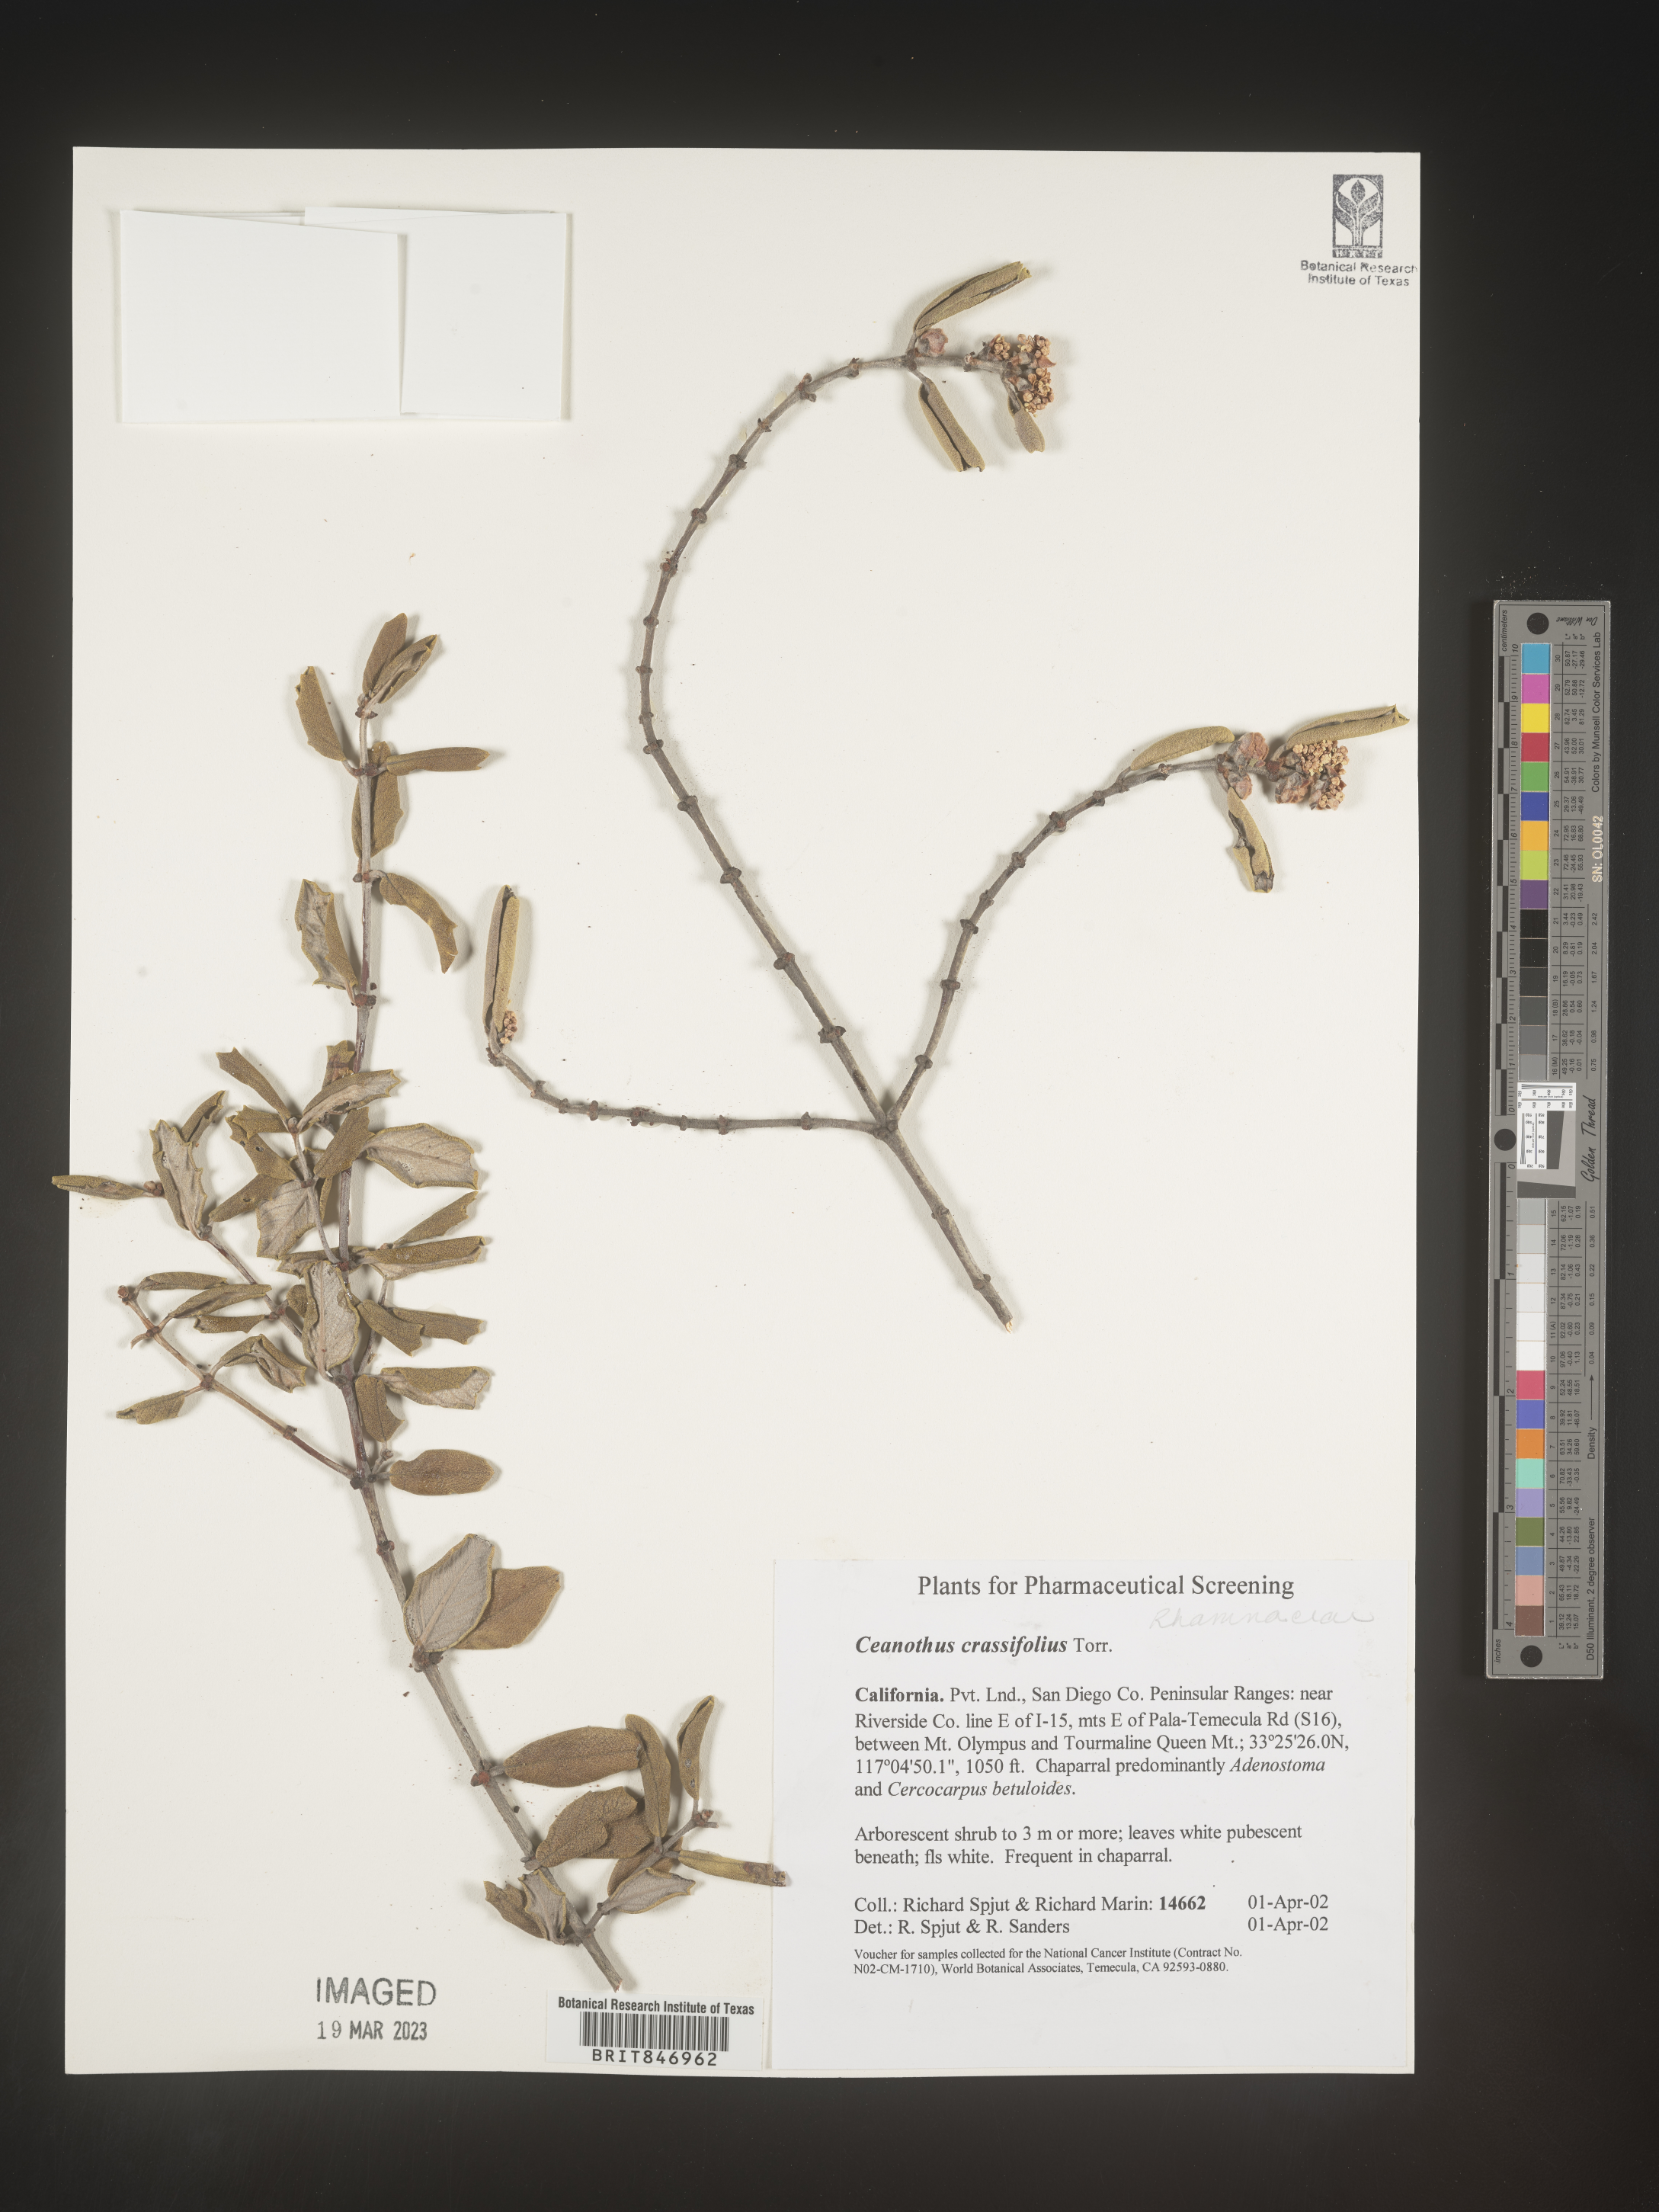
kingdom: Plantae
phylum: Tracheophyta
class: Magnoliopsida
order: Rosales
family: Rhamnaceae
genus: Ceanothus
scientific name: Ceanothus crassifolius
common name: Hoaryleaf ceanothus
